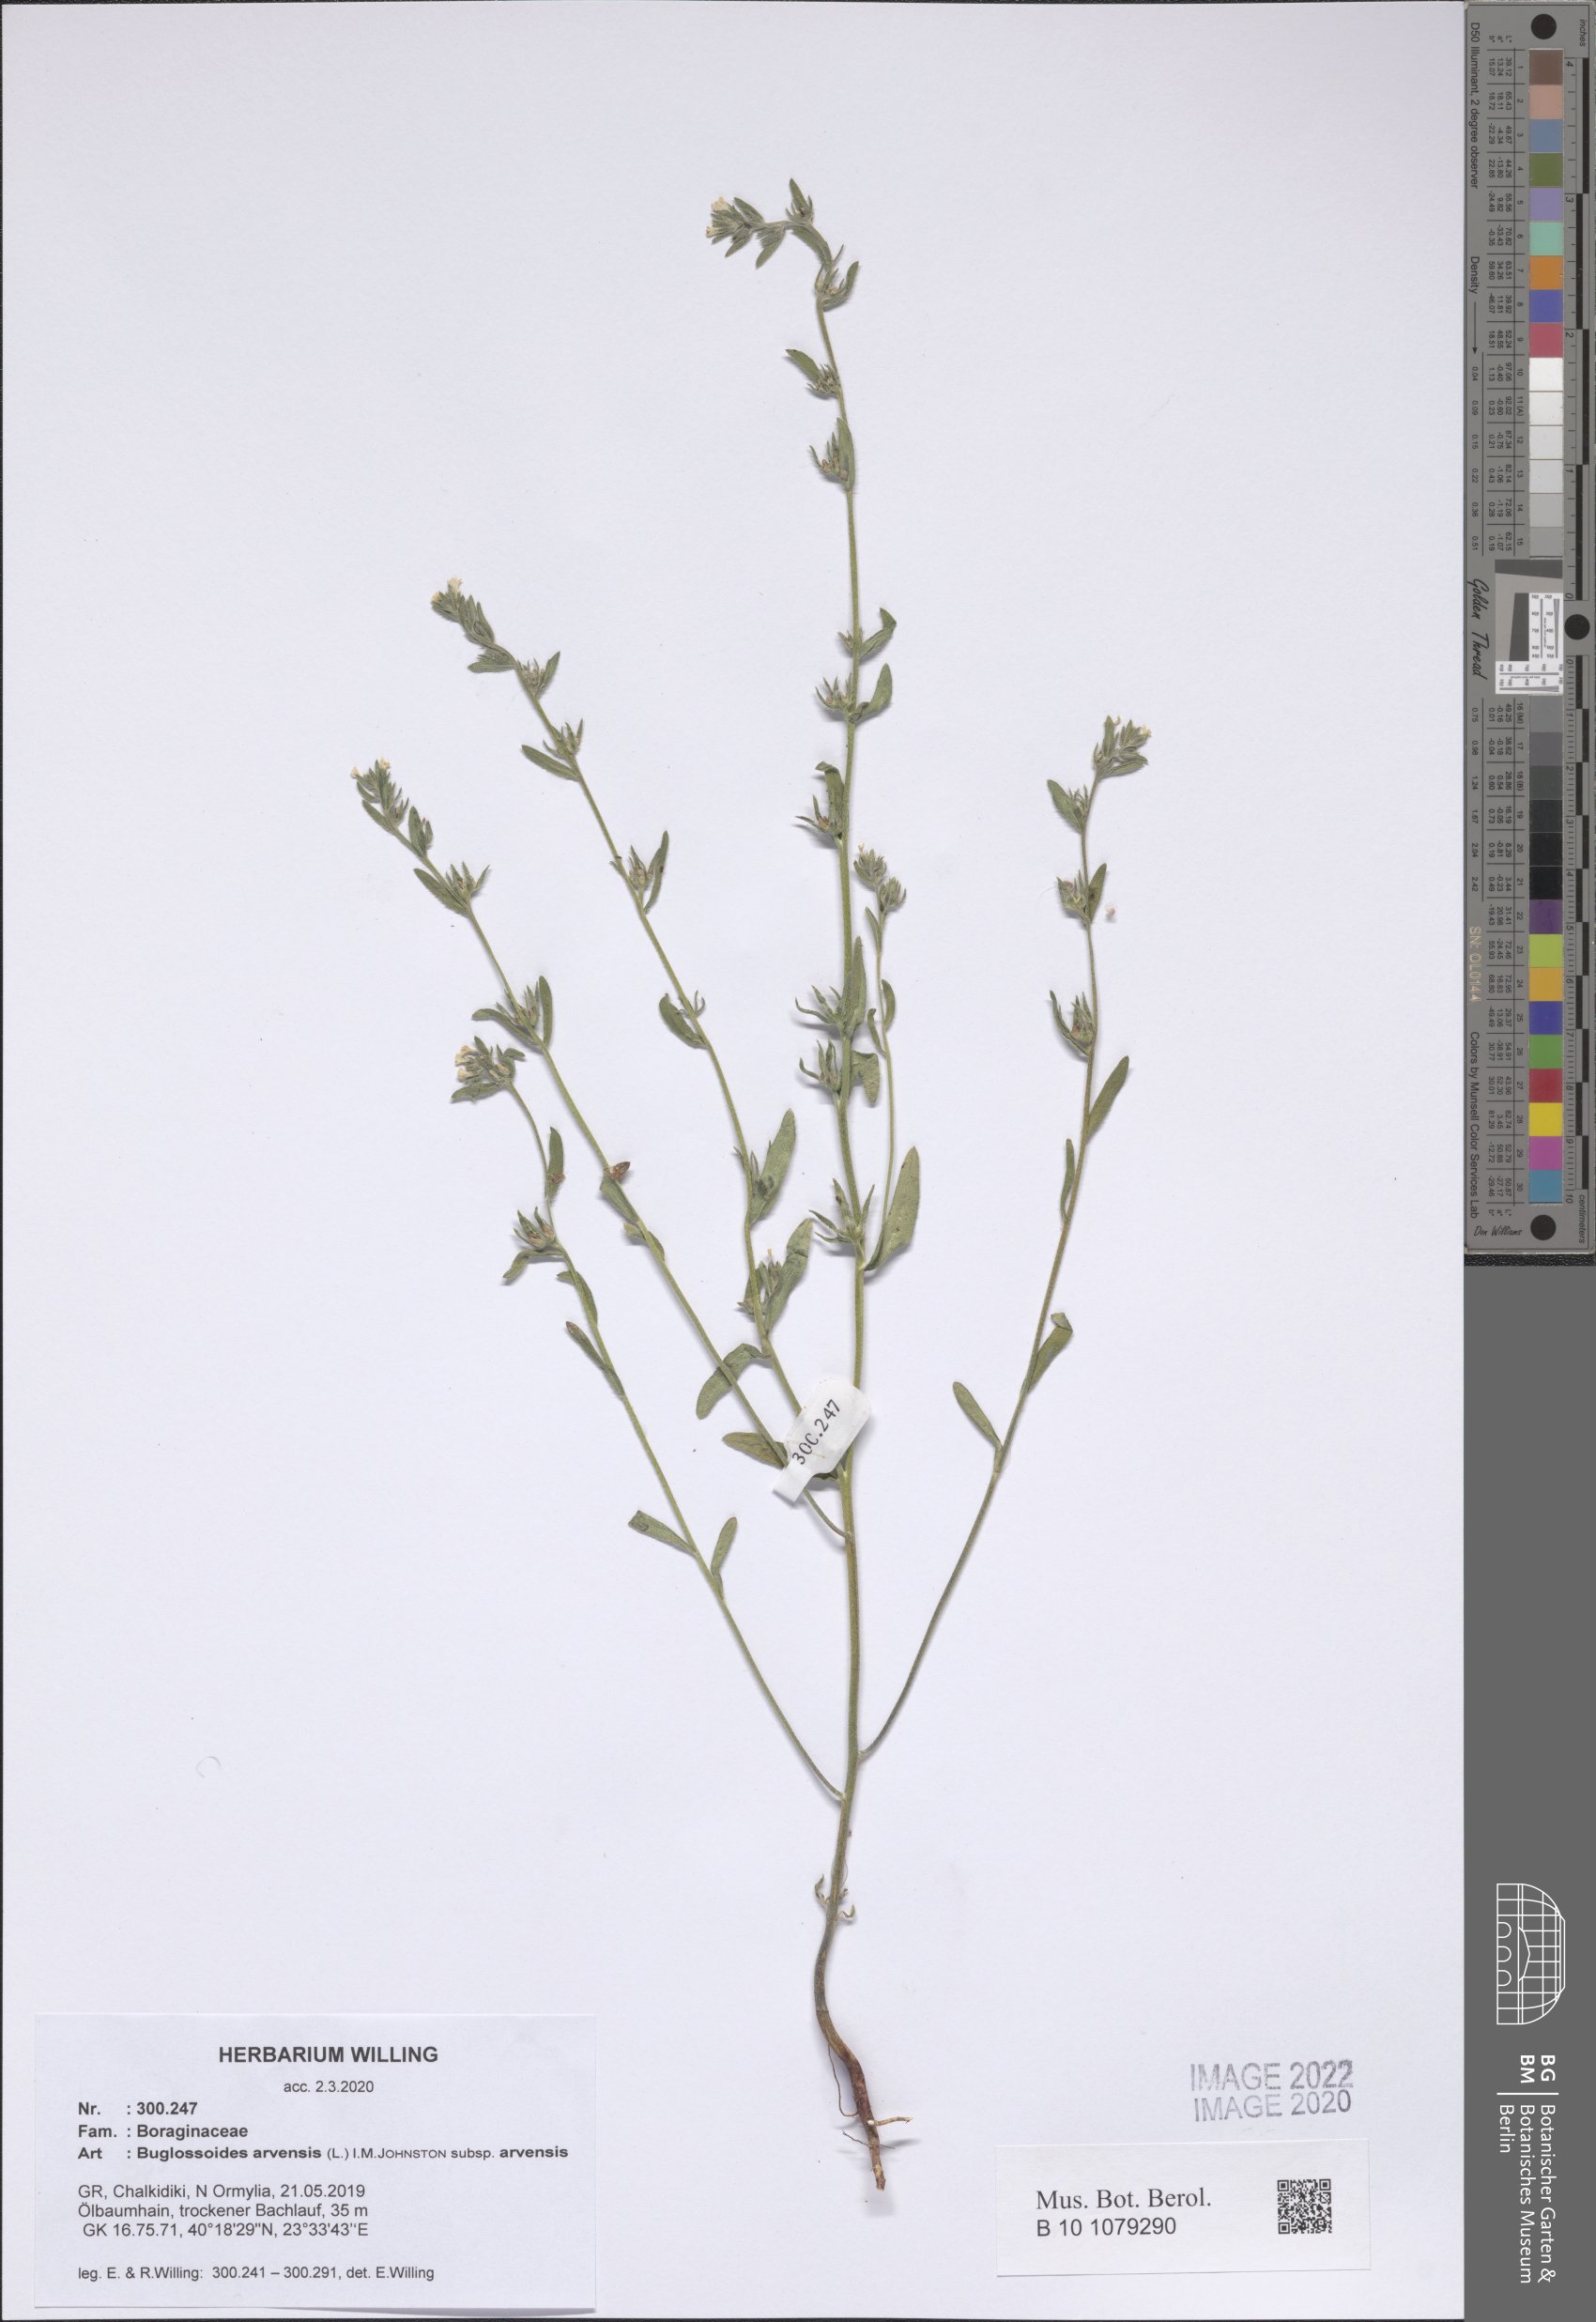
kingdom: Plantae
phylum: Tracheophyta
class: Magnoliopsida
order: Boraginales
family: Boraginaceae
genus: Buglossoides
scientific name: Buglossoides arvensis
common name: Corn gromwell
